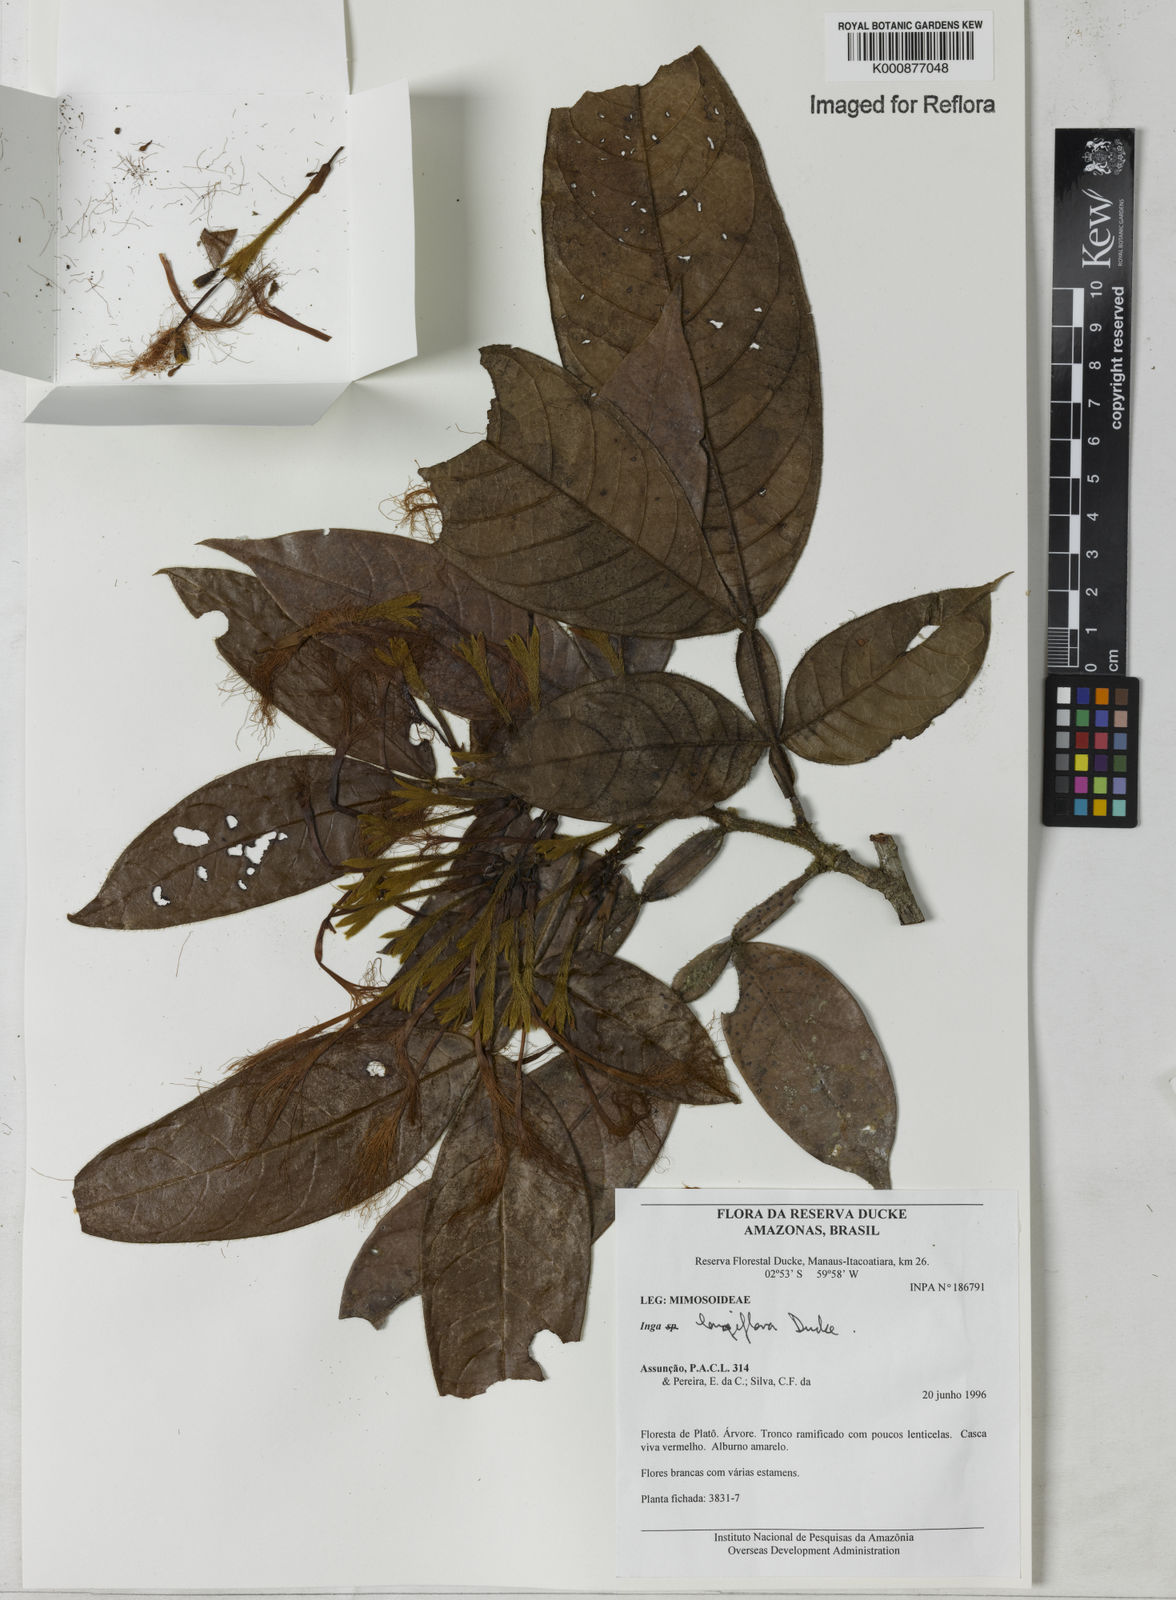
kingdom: Plantae
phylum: Tracheophyta
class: Magnoliopsida
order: Fabales
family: Fabaceae
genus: Inga
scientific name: Inga longiflora
